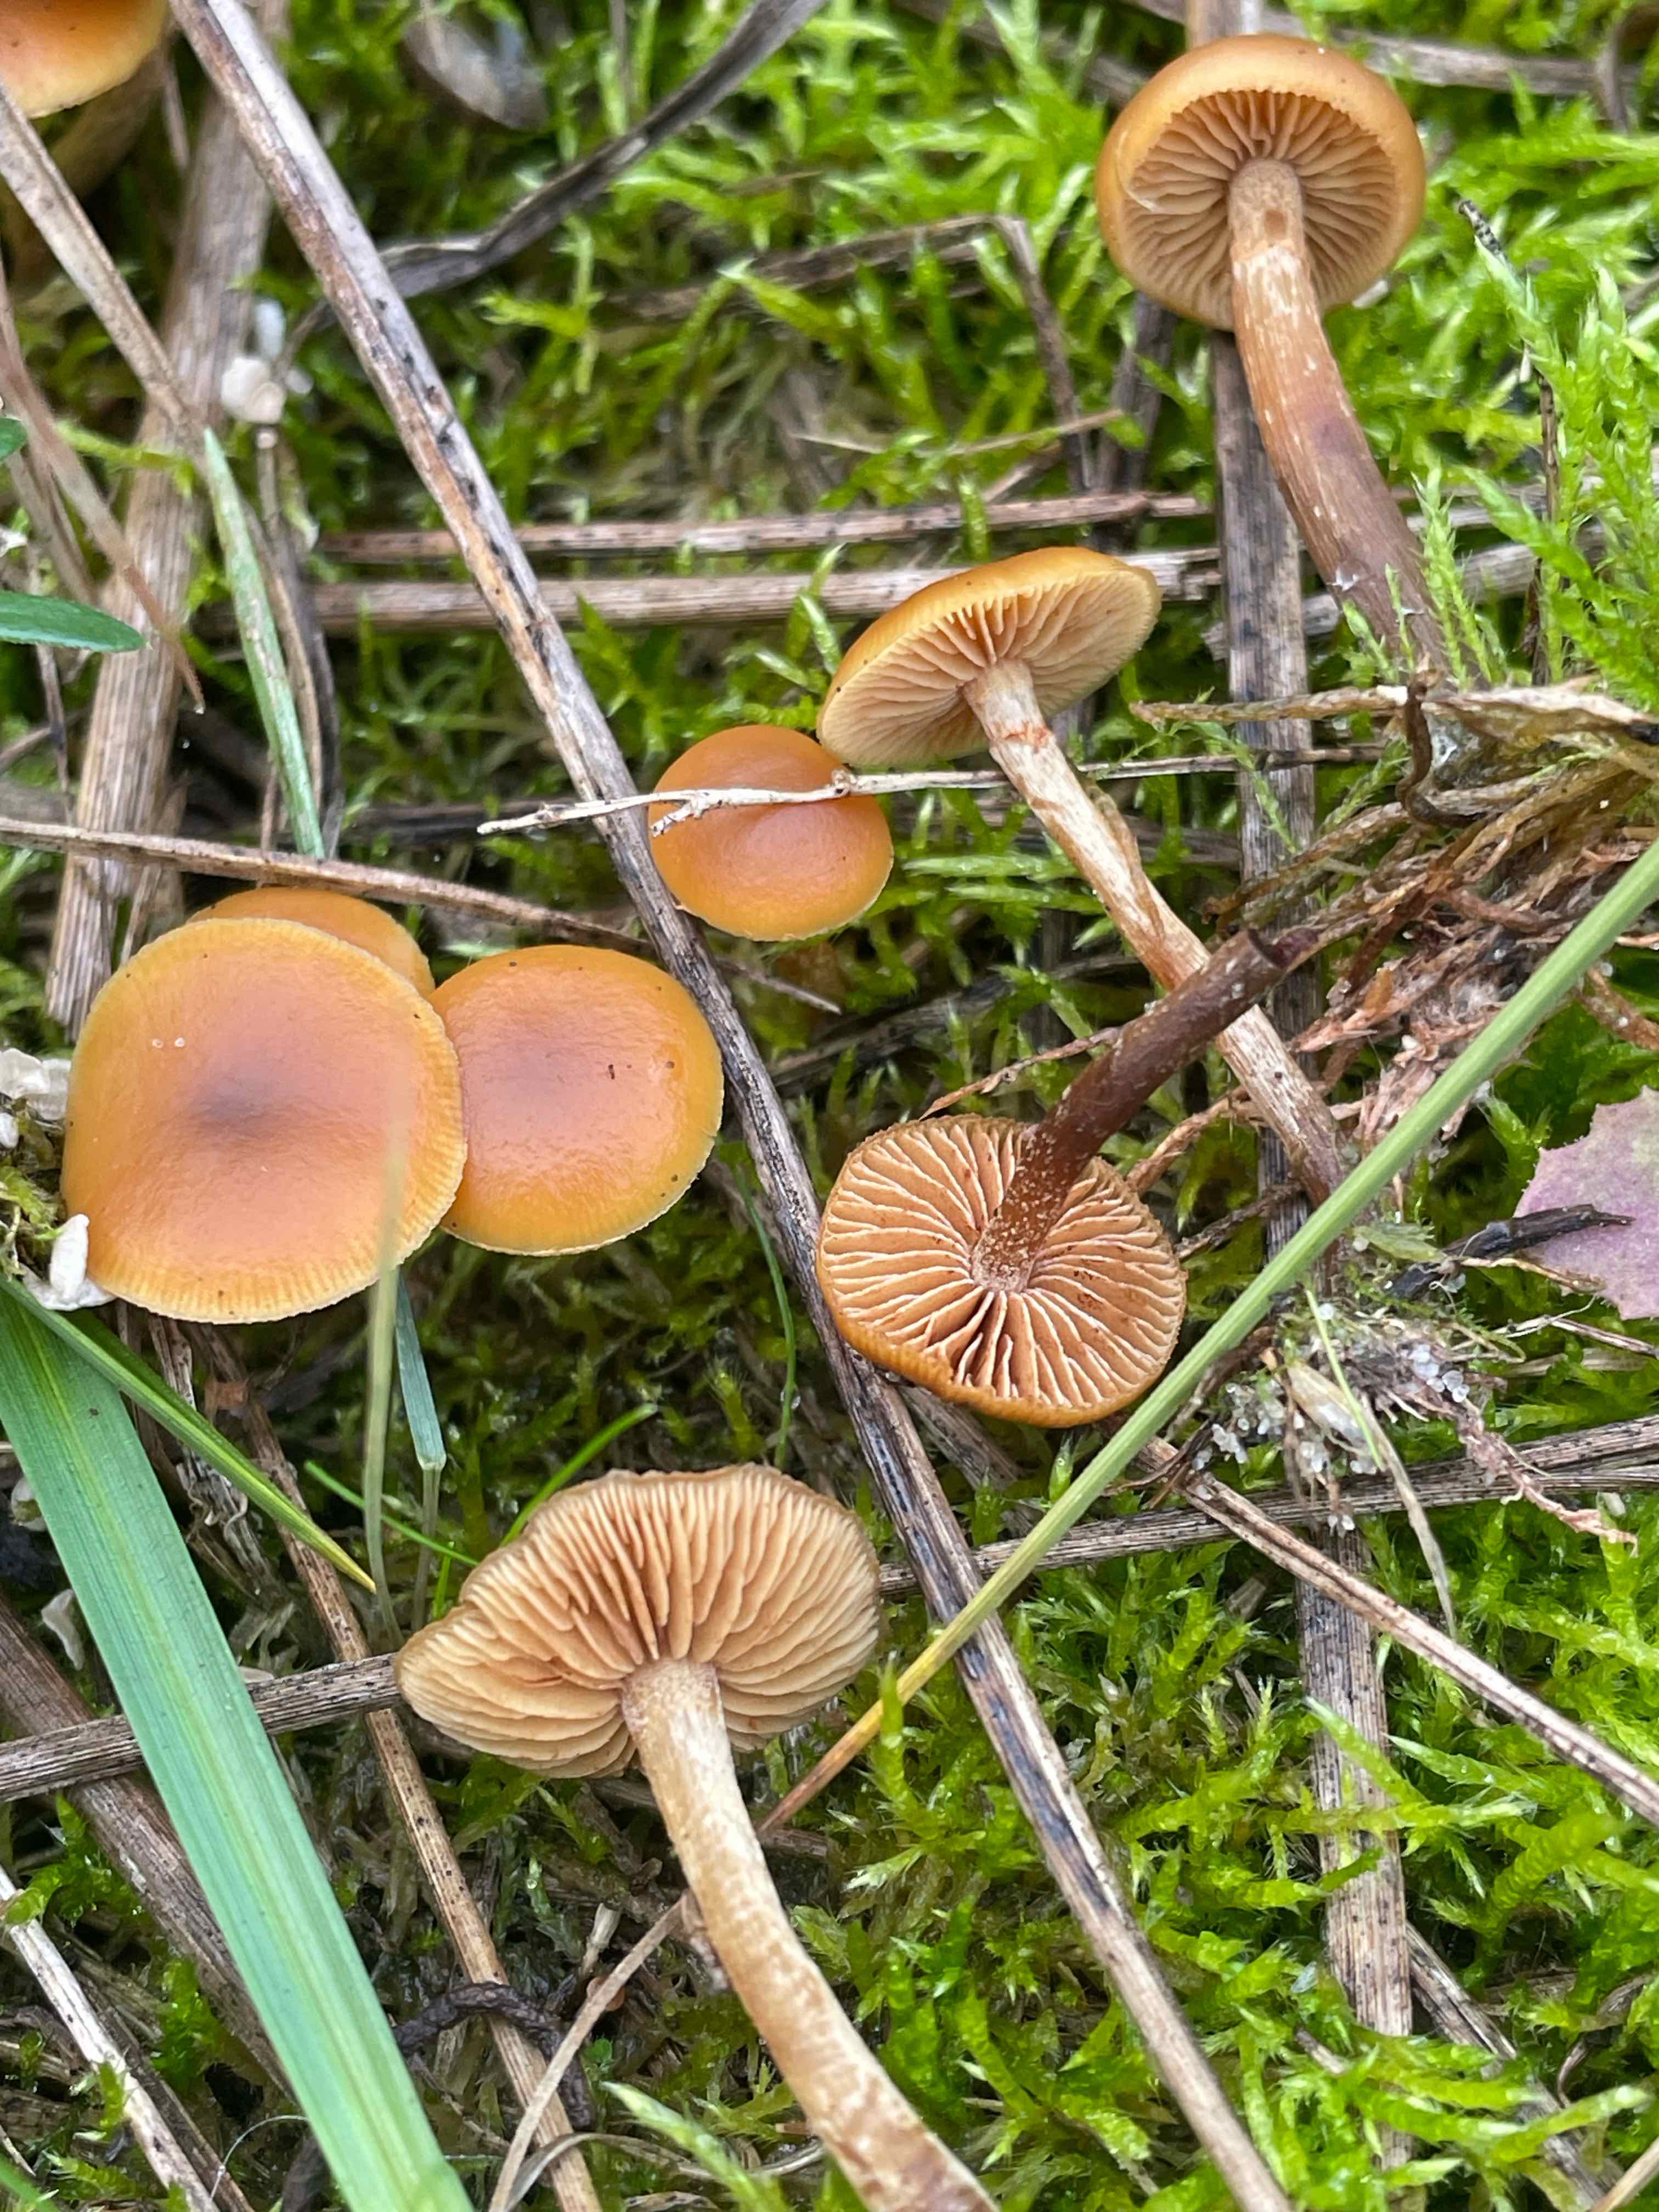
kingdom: Fungi
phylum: Basidiomycota
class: Agaricomycetes
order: Agaricales
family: Hymenogastraceae
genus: Galerina
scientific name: Galerina esteve-raventosii
